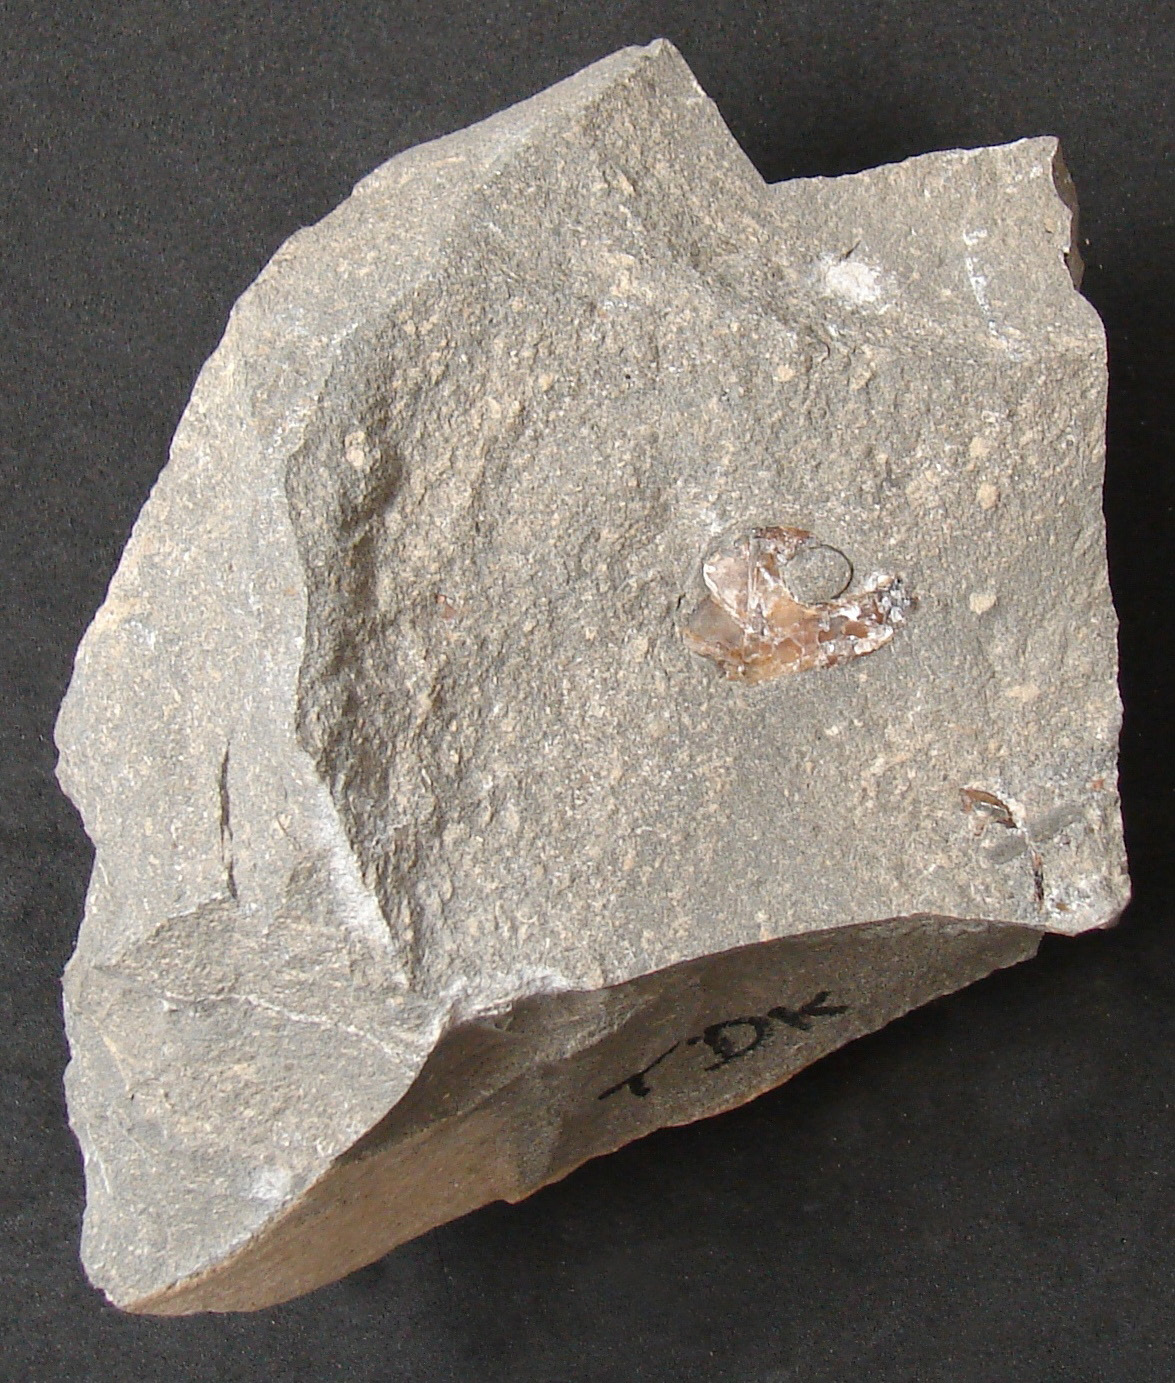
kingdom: Animalia
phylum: Chordata
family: Leptolepididae
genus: Leptolepis
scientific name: Leptolepis normandica
